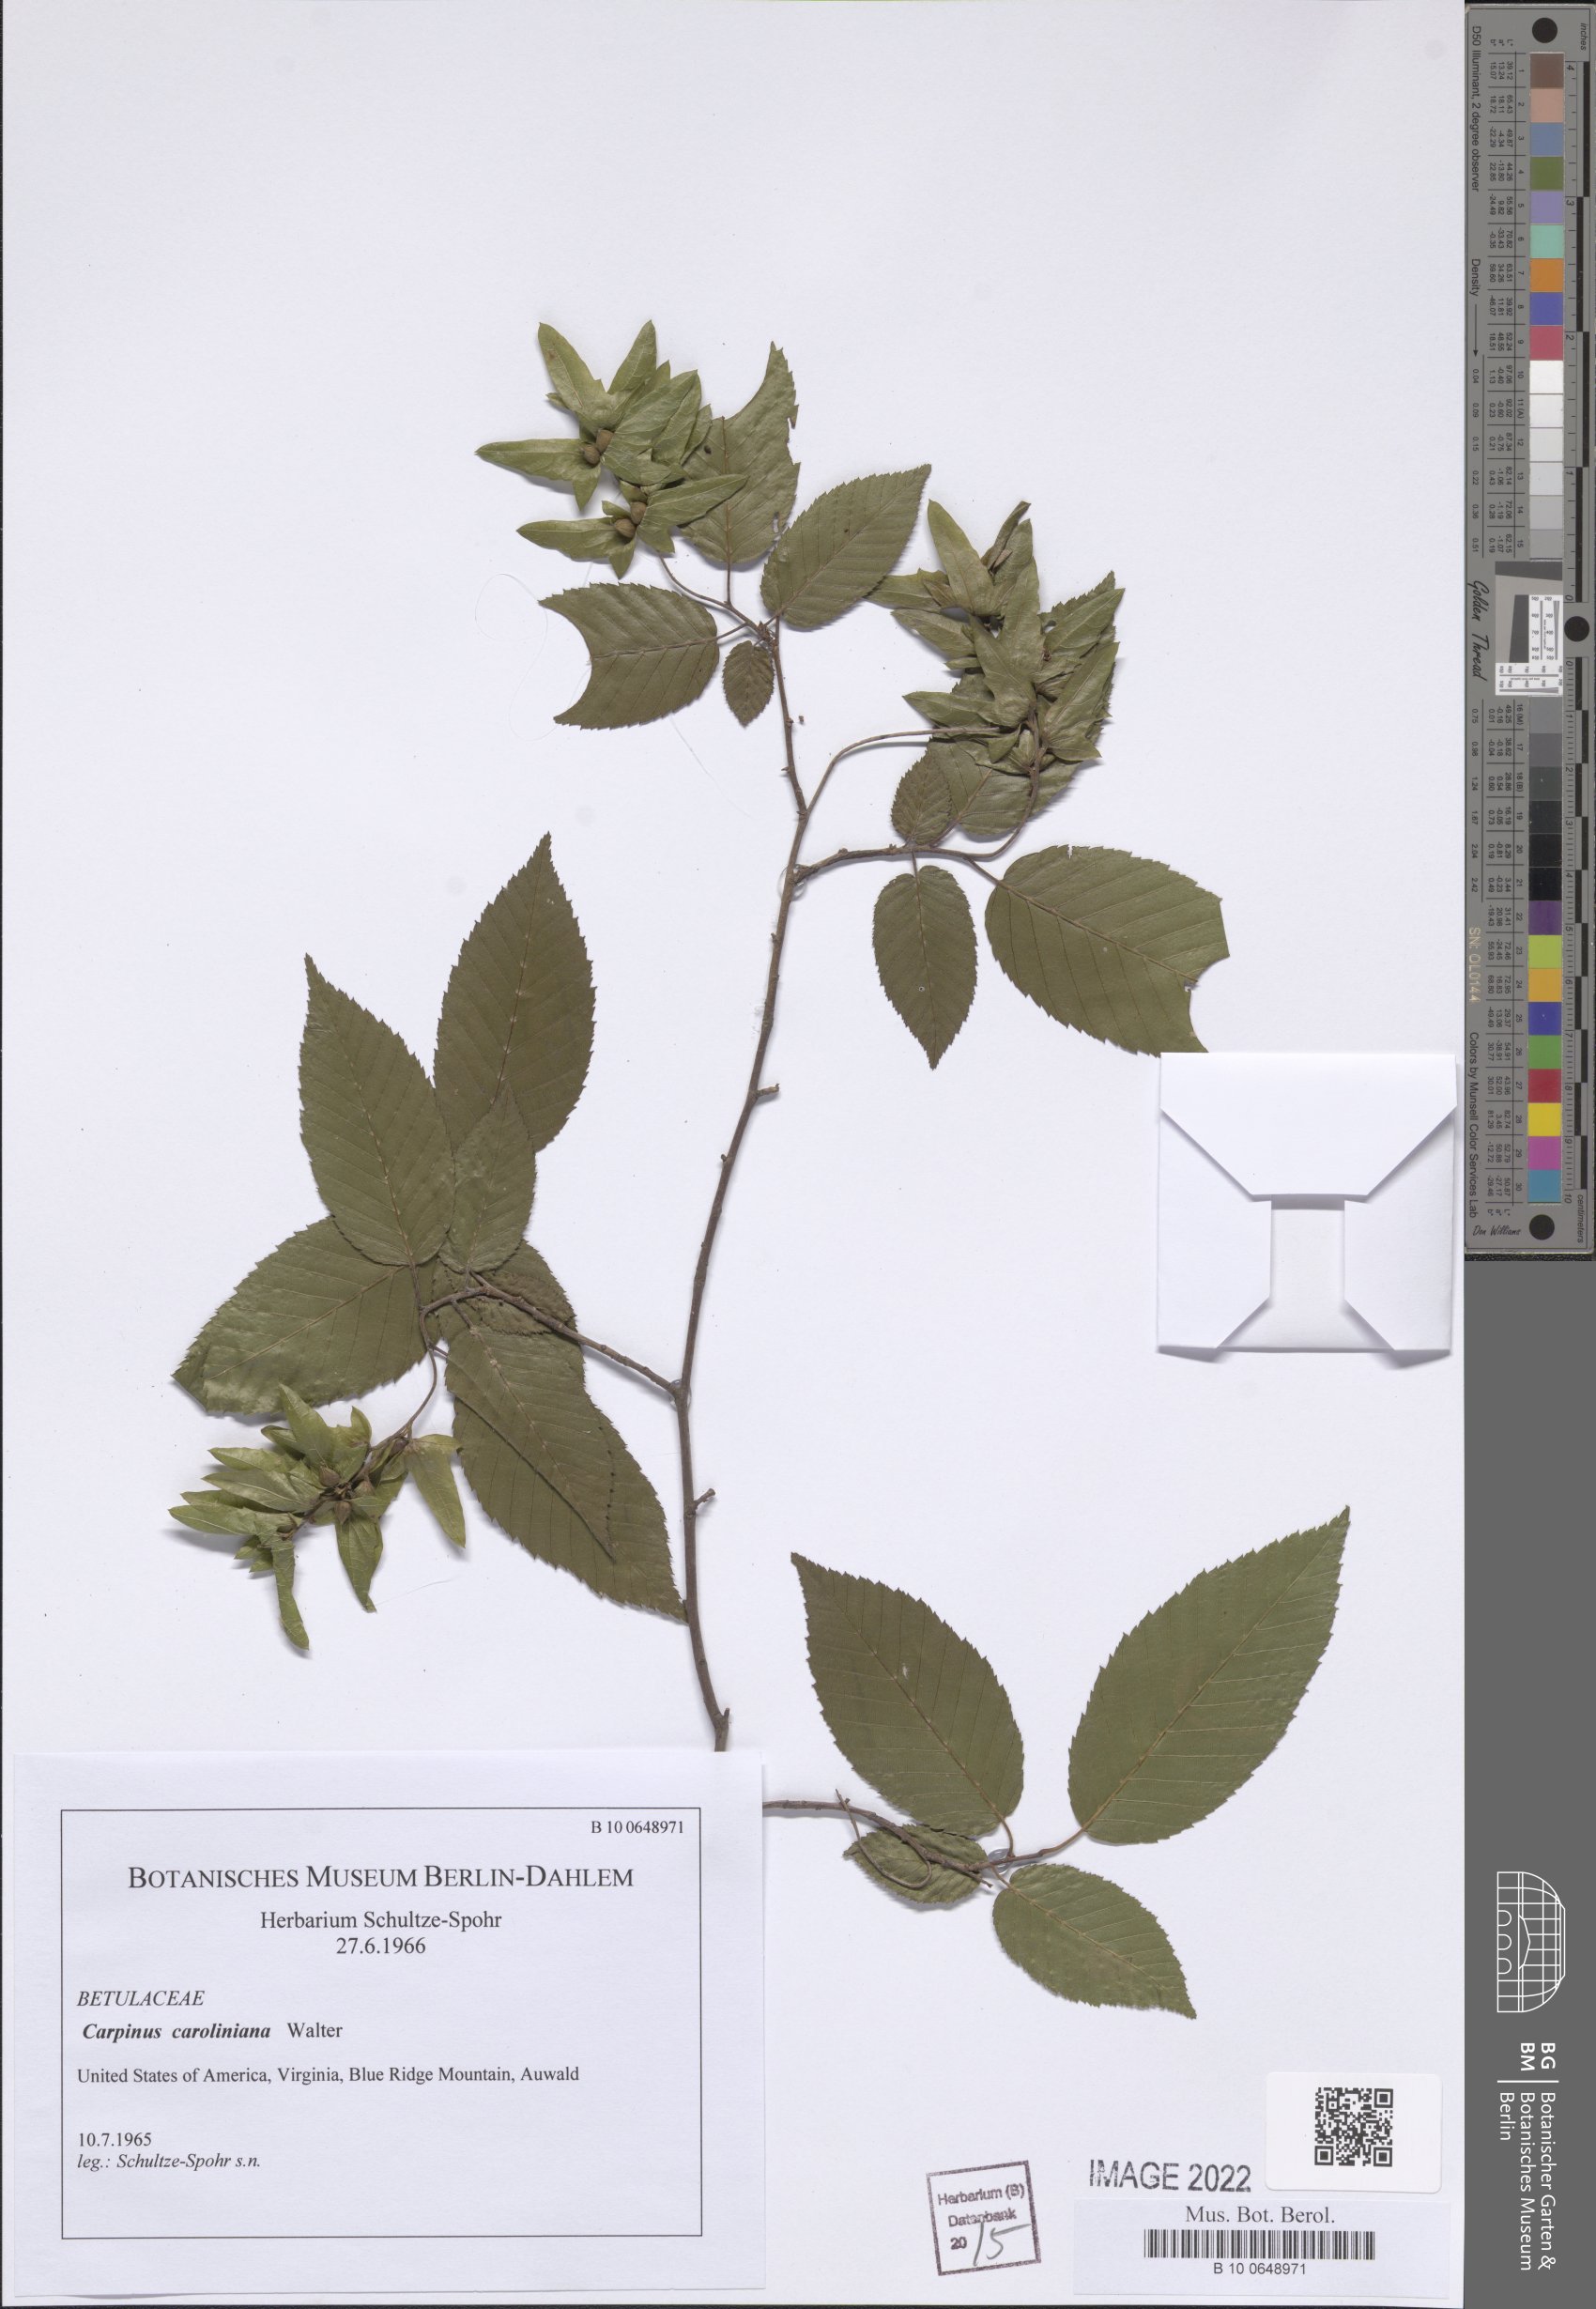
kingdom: Plantae
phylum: Tracheophyta
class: Magnoliopsida
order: Fagales
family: Betulaceae
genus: Carpinus
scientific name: Carpinus caroliniana
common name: American hornbeam
